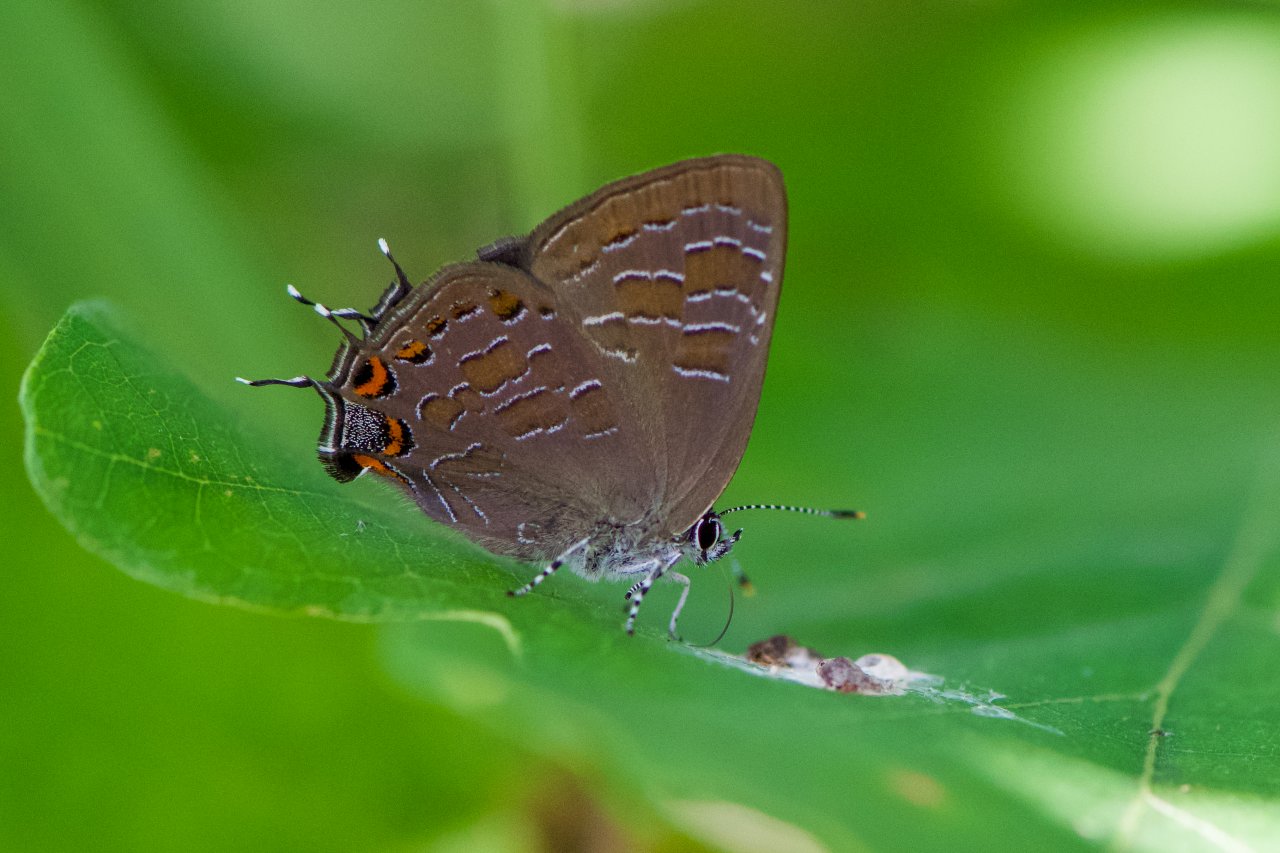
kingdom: Animalia
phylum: Arthropoda
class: Insecta
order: Lepidoptera
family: Lycaenidae
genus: Satyrium
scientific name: Satyrium liparops
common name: Striped Hairstreak
